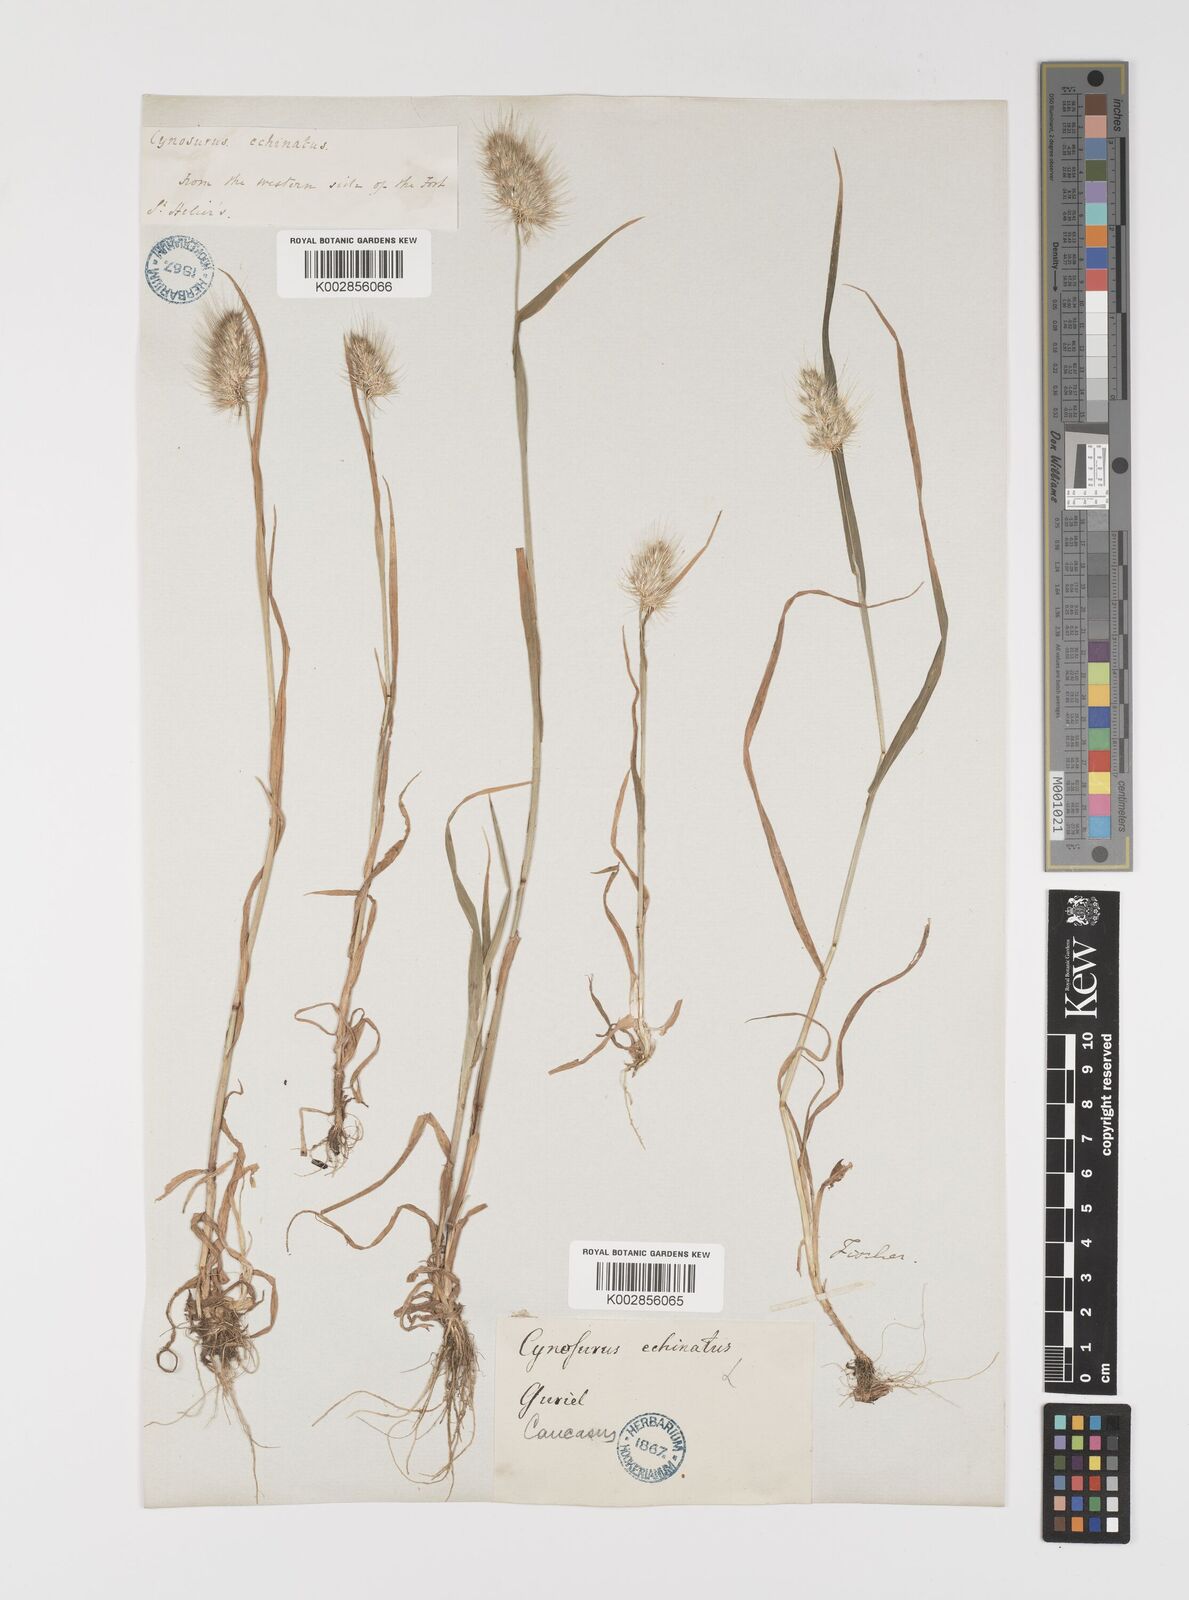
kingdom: Plantae
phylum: Tracheophyta
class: Liliopsida
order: Poales
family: Poaceae
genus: Cynosurus
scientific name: Cynosurus echinatus
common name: Rough dog's-tail
